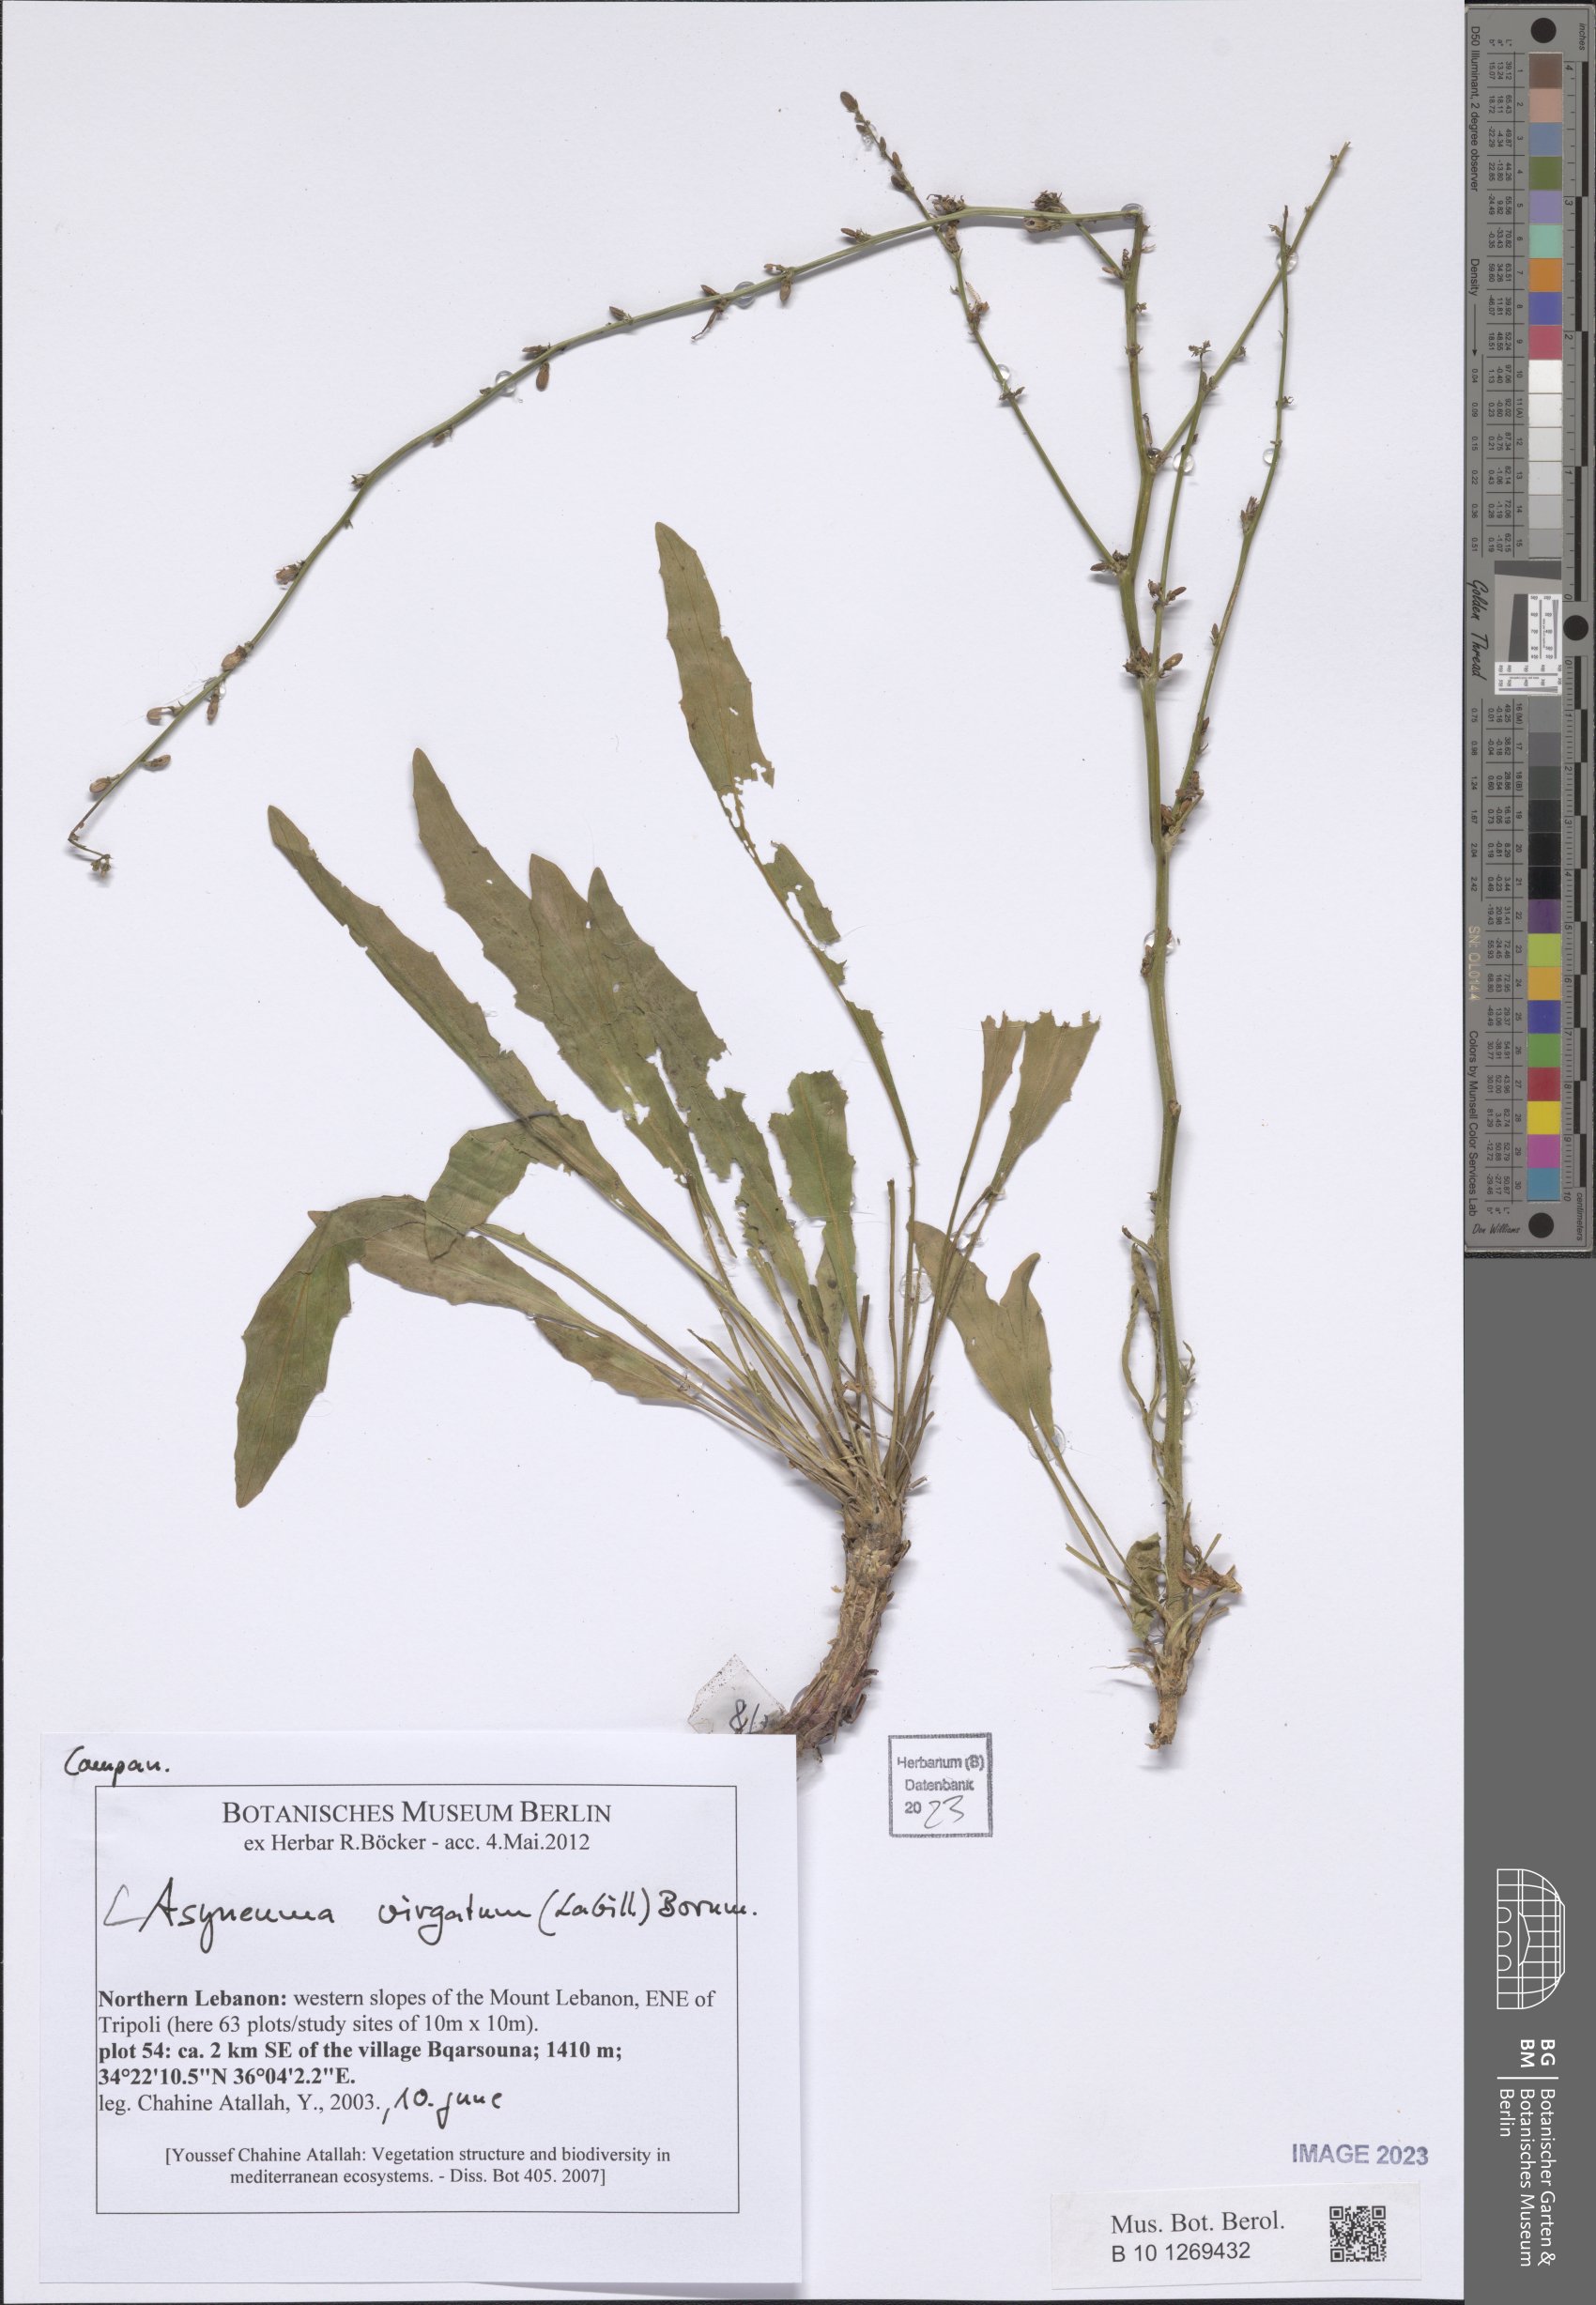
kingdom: Plantae
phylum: Tracheophyta
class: Magnoliopsida
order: Asterales
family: Campanulaceae
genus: Asyneuma
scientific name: Asyneuma virgatum
